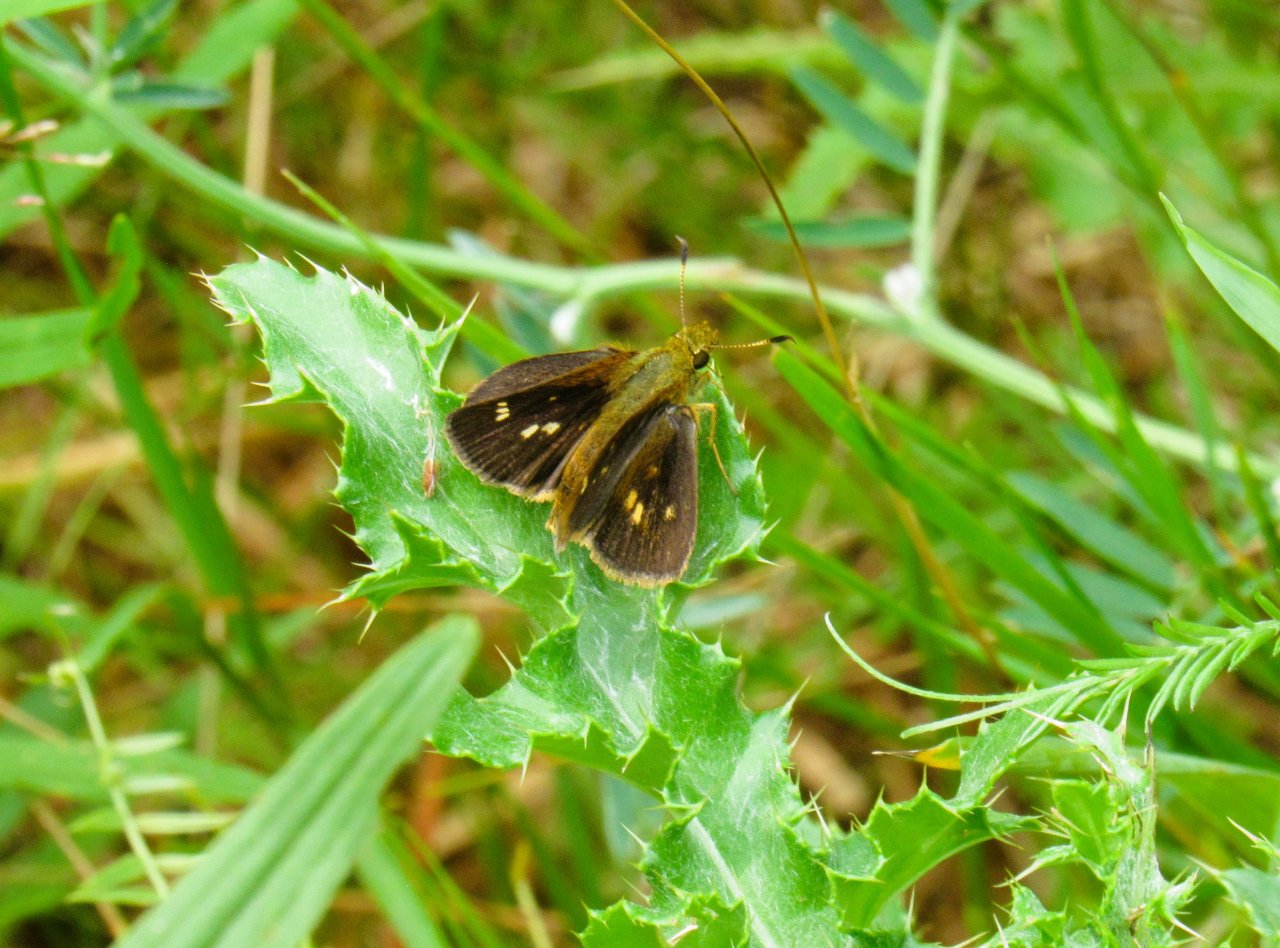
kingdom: Animalia
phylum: Arthropoda
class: Insecta
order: Lepidoptera
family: Hesperiidae
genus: Euphyes
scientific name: Euphyes vestris
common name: Dun Skipper
